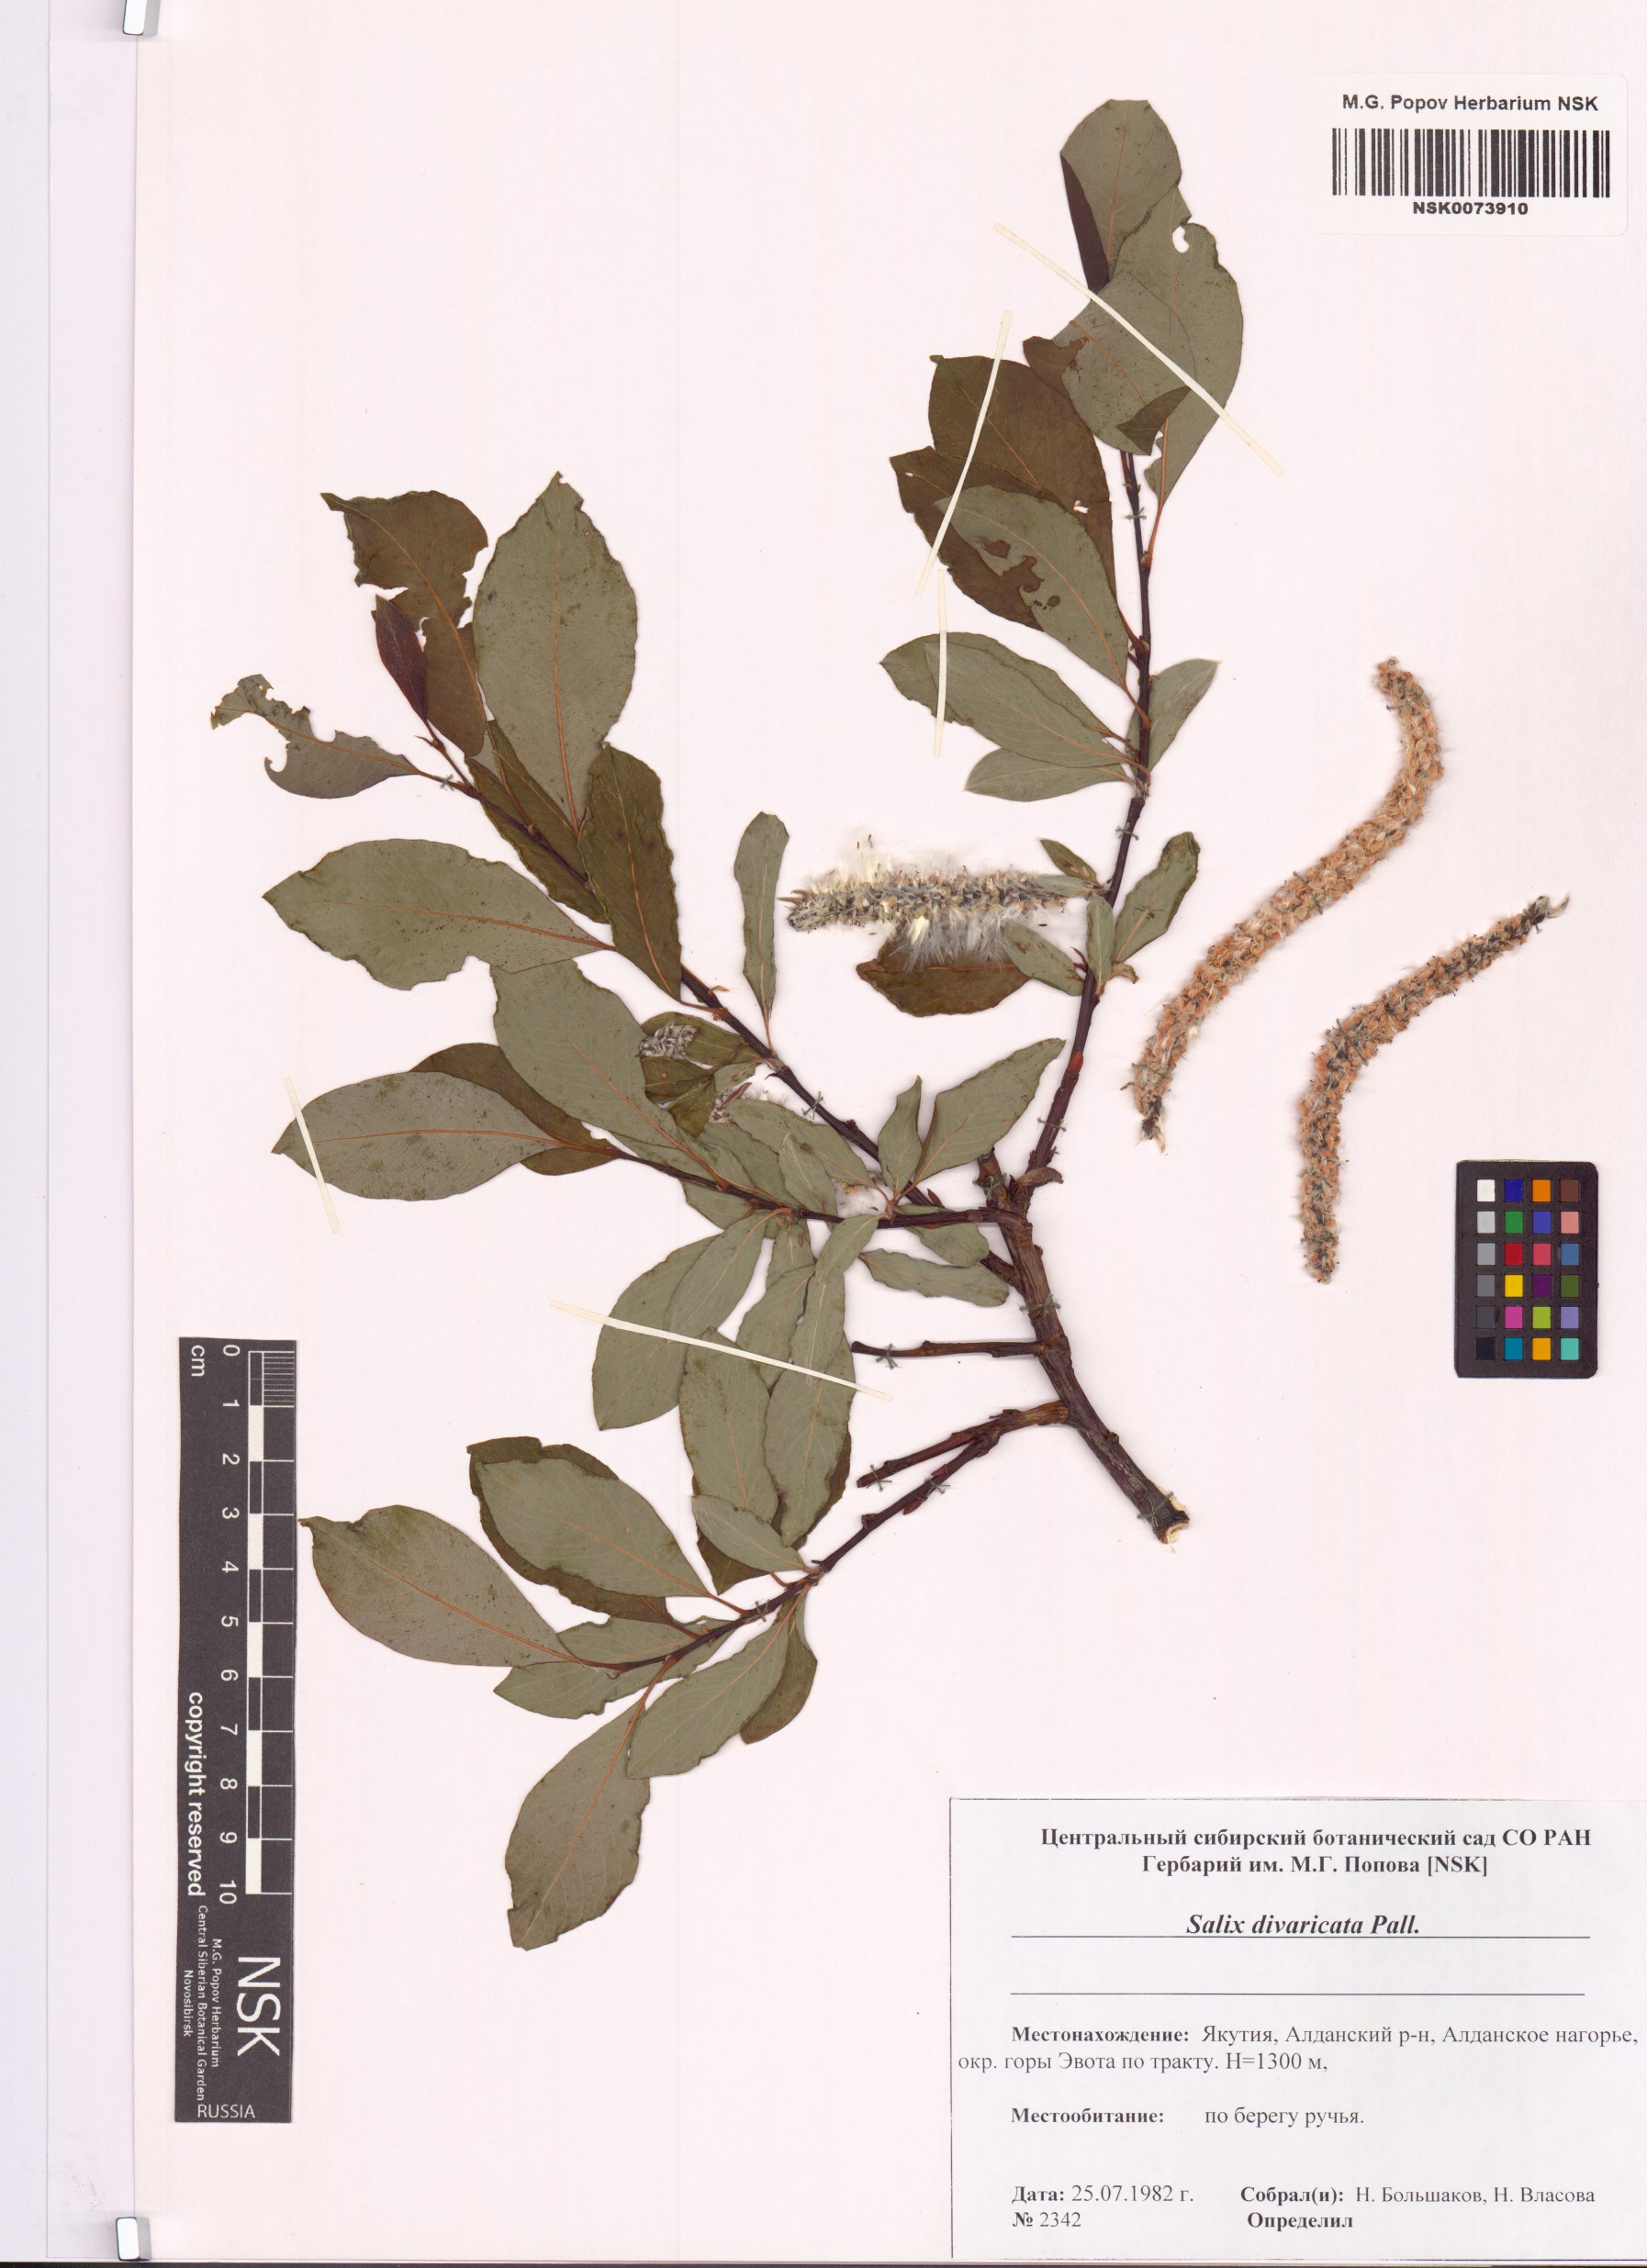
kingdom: Plantae
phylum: Tracheophyta
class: Magnoliopsida
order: Malpighiales
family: Salicaceae
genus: Salix
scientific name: Salix divaricata
